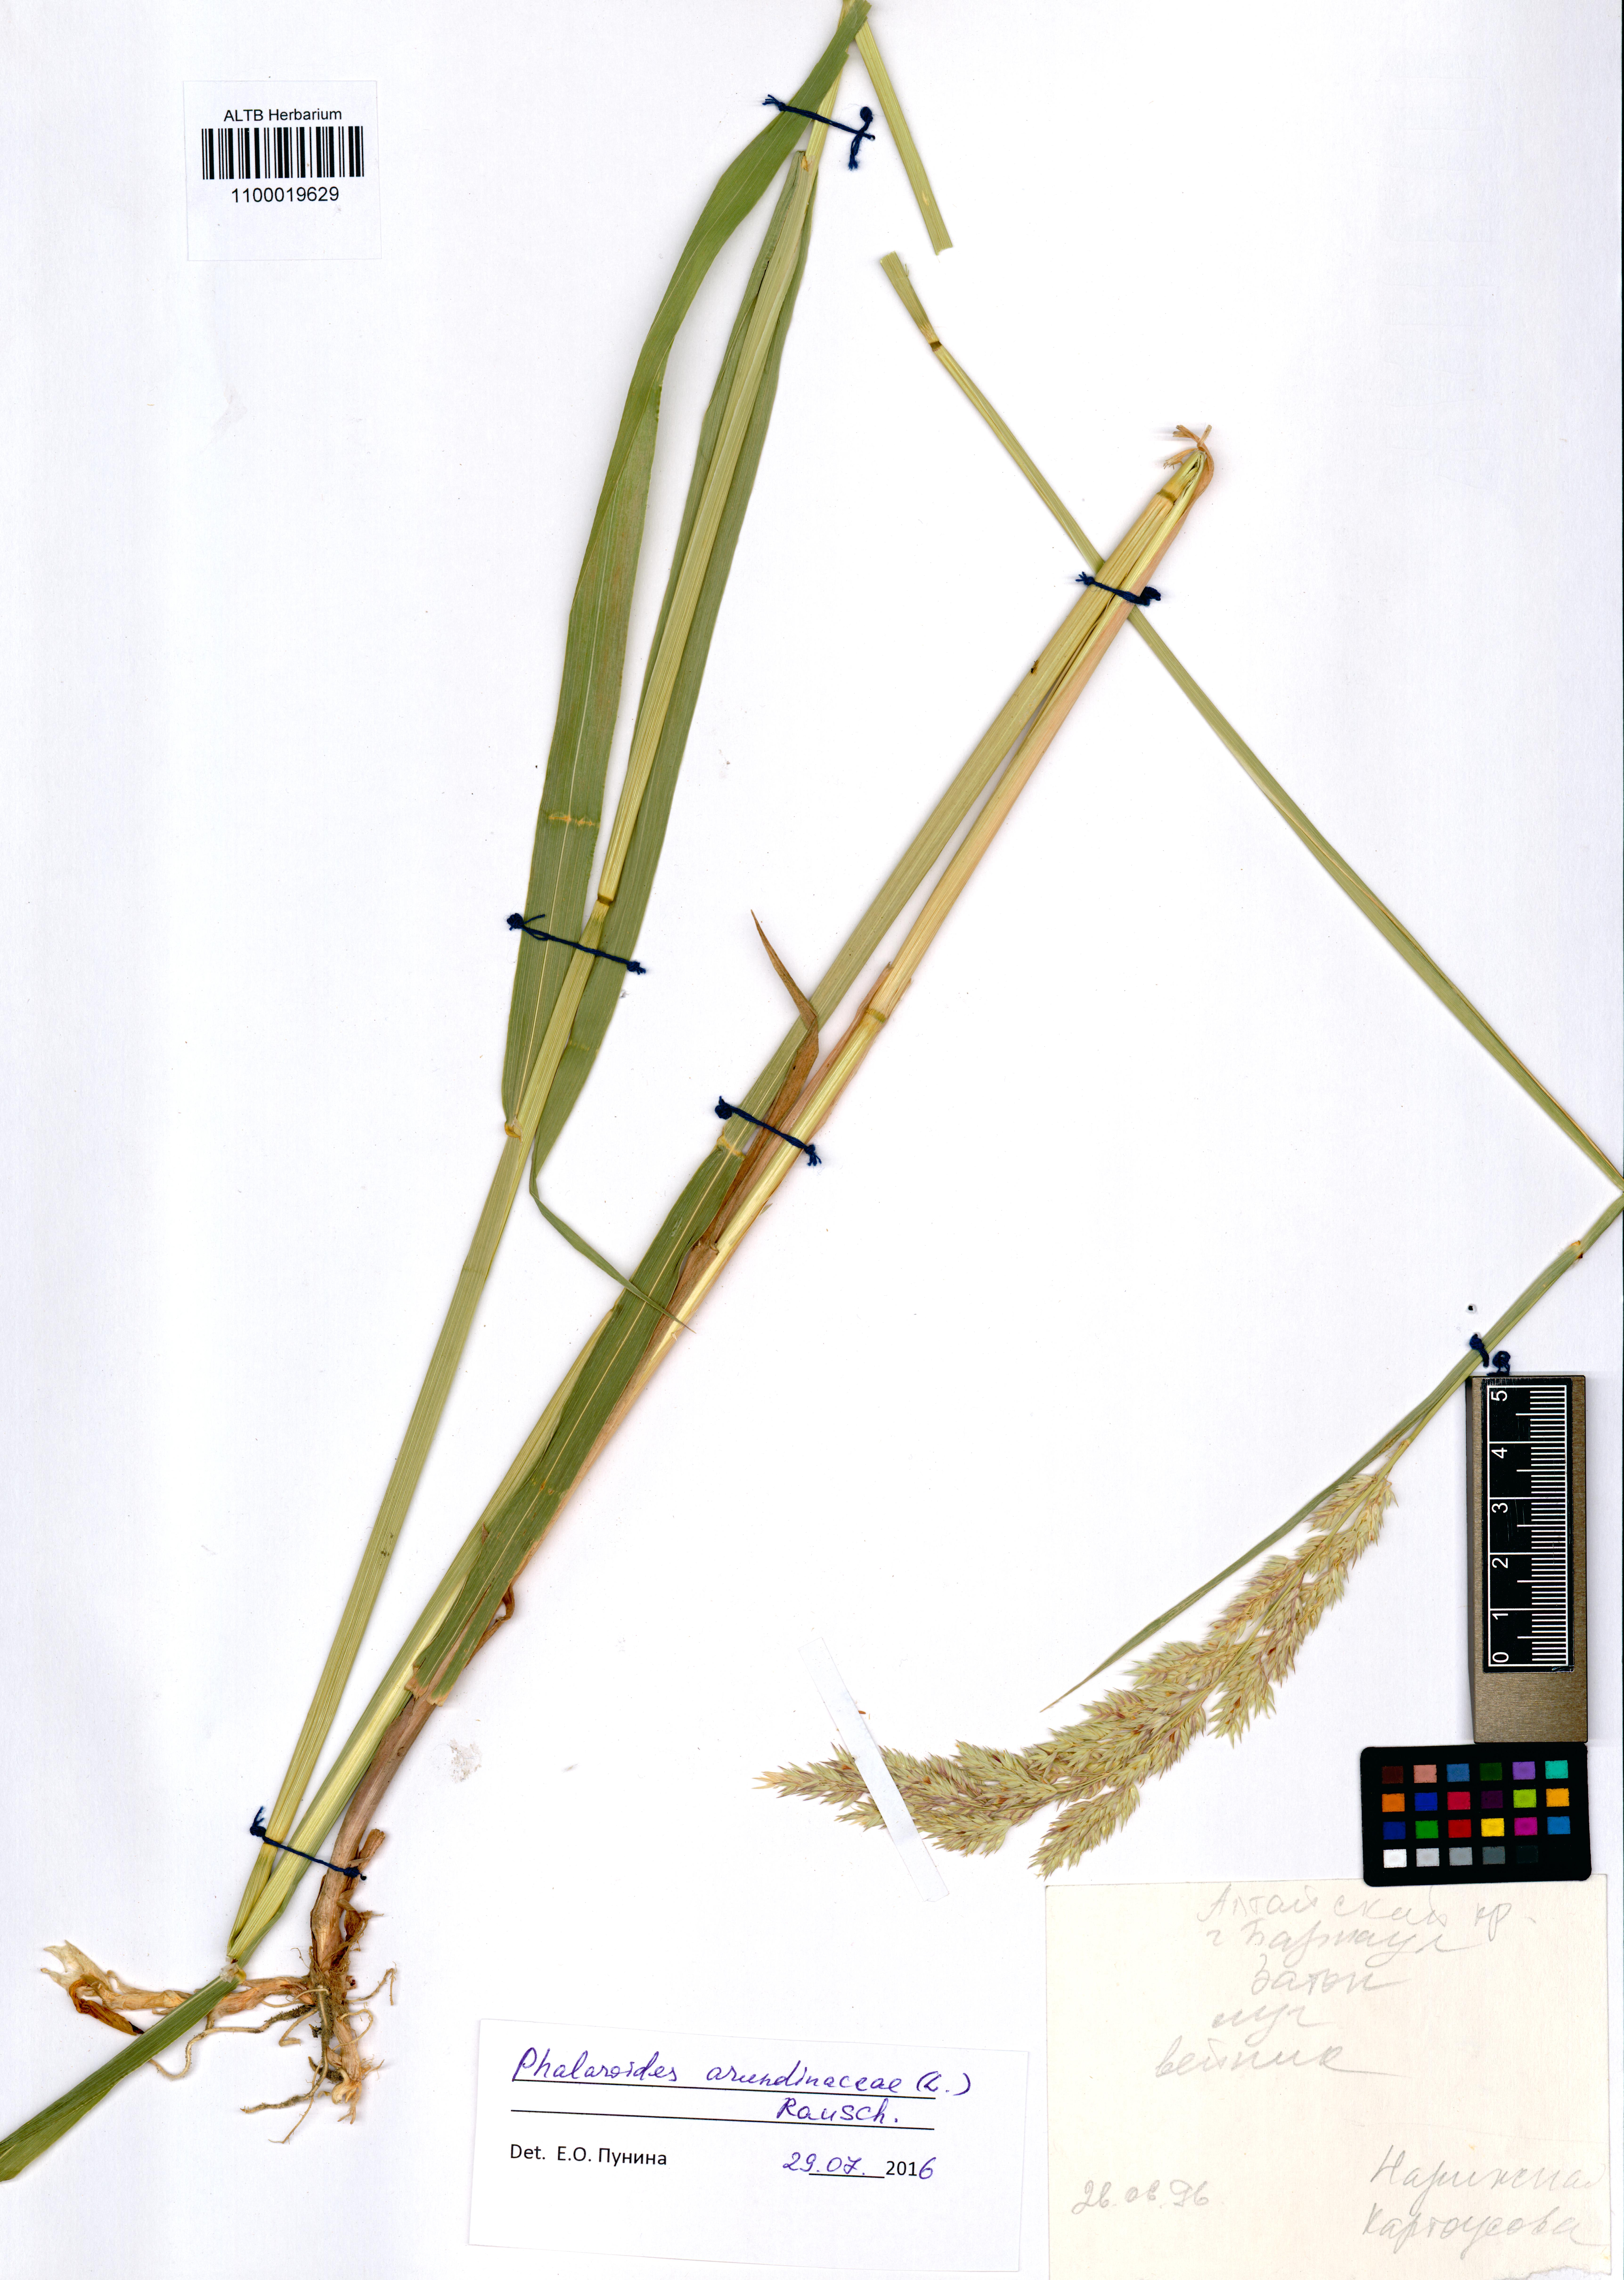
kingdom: Plantae
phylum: Tracheophyta
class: Liliopsida
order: Poales
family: Poaceae
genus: Phalaris
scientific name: Phalaris arundinacea
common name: Reed canary-grass
